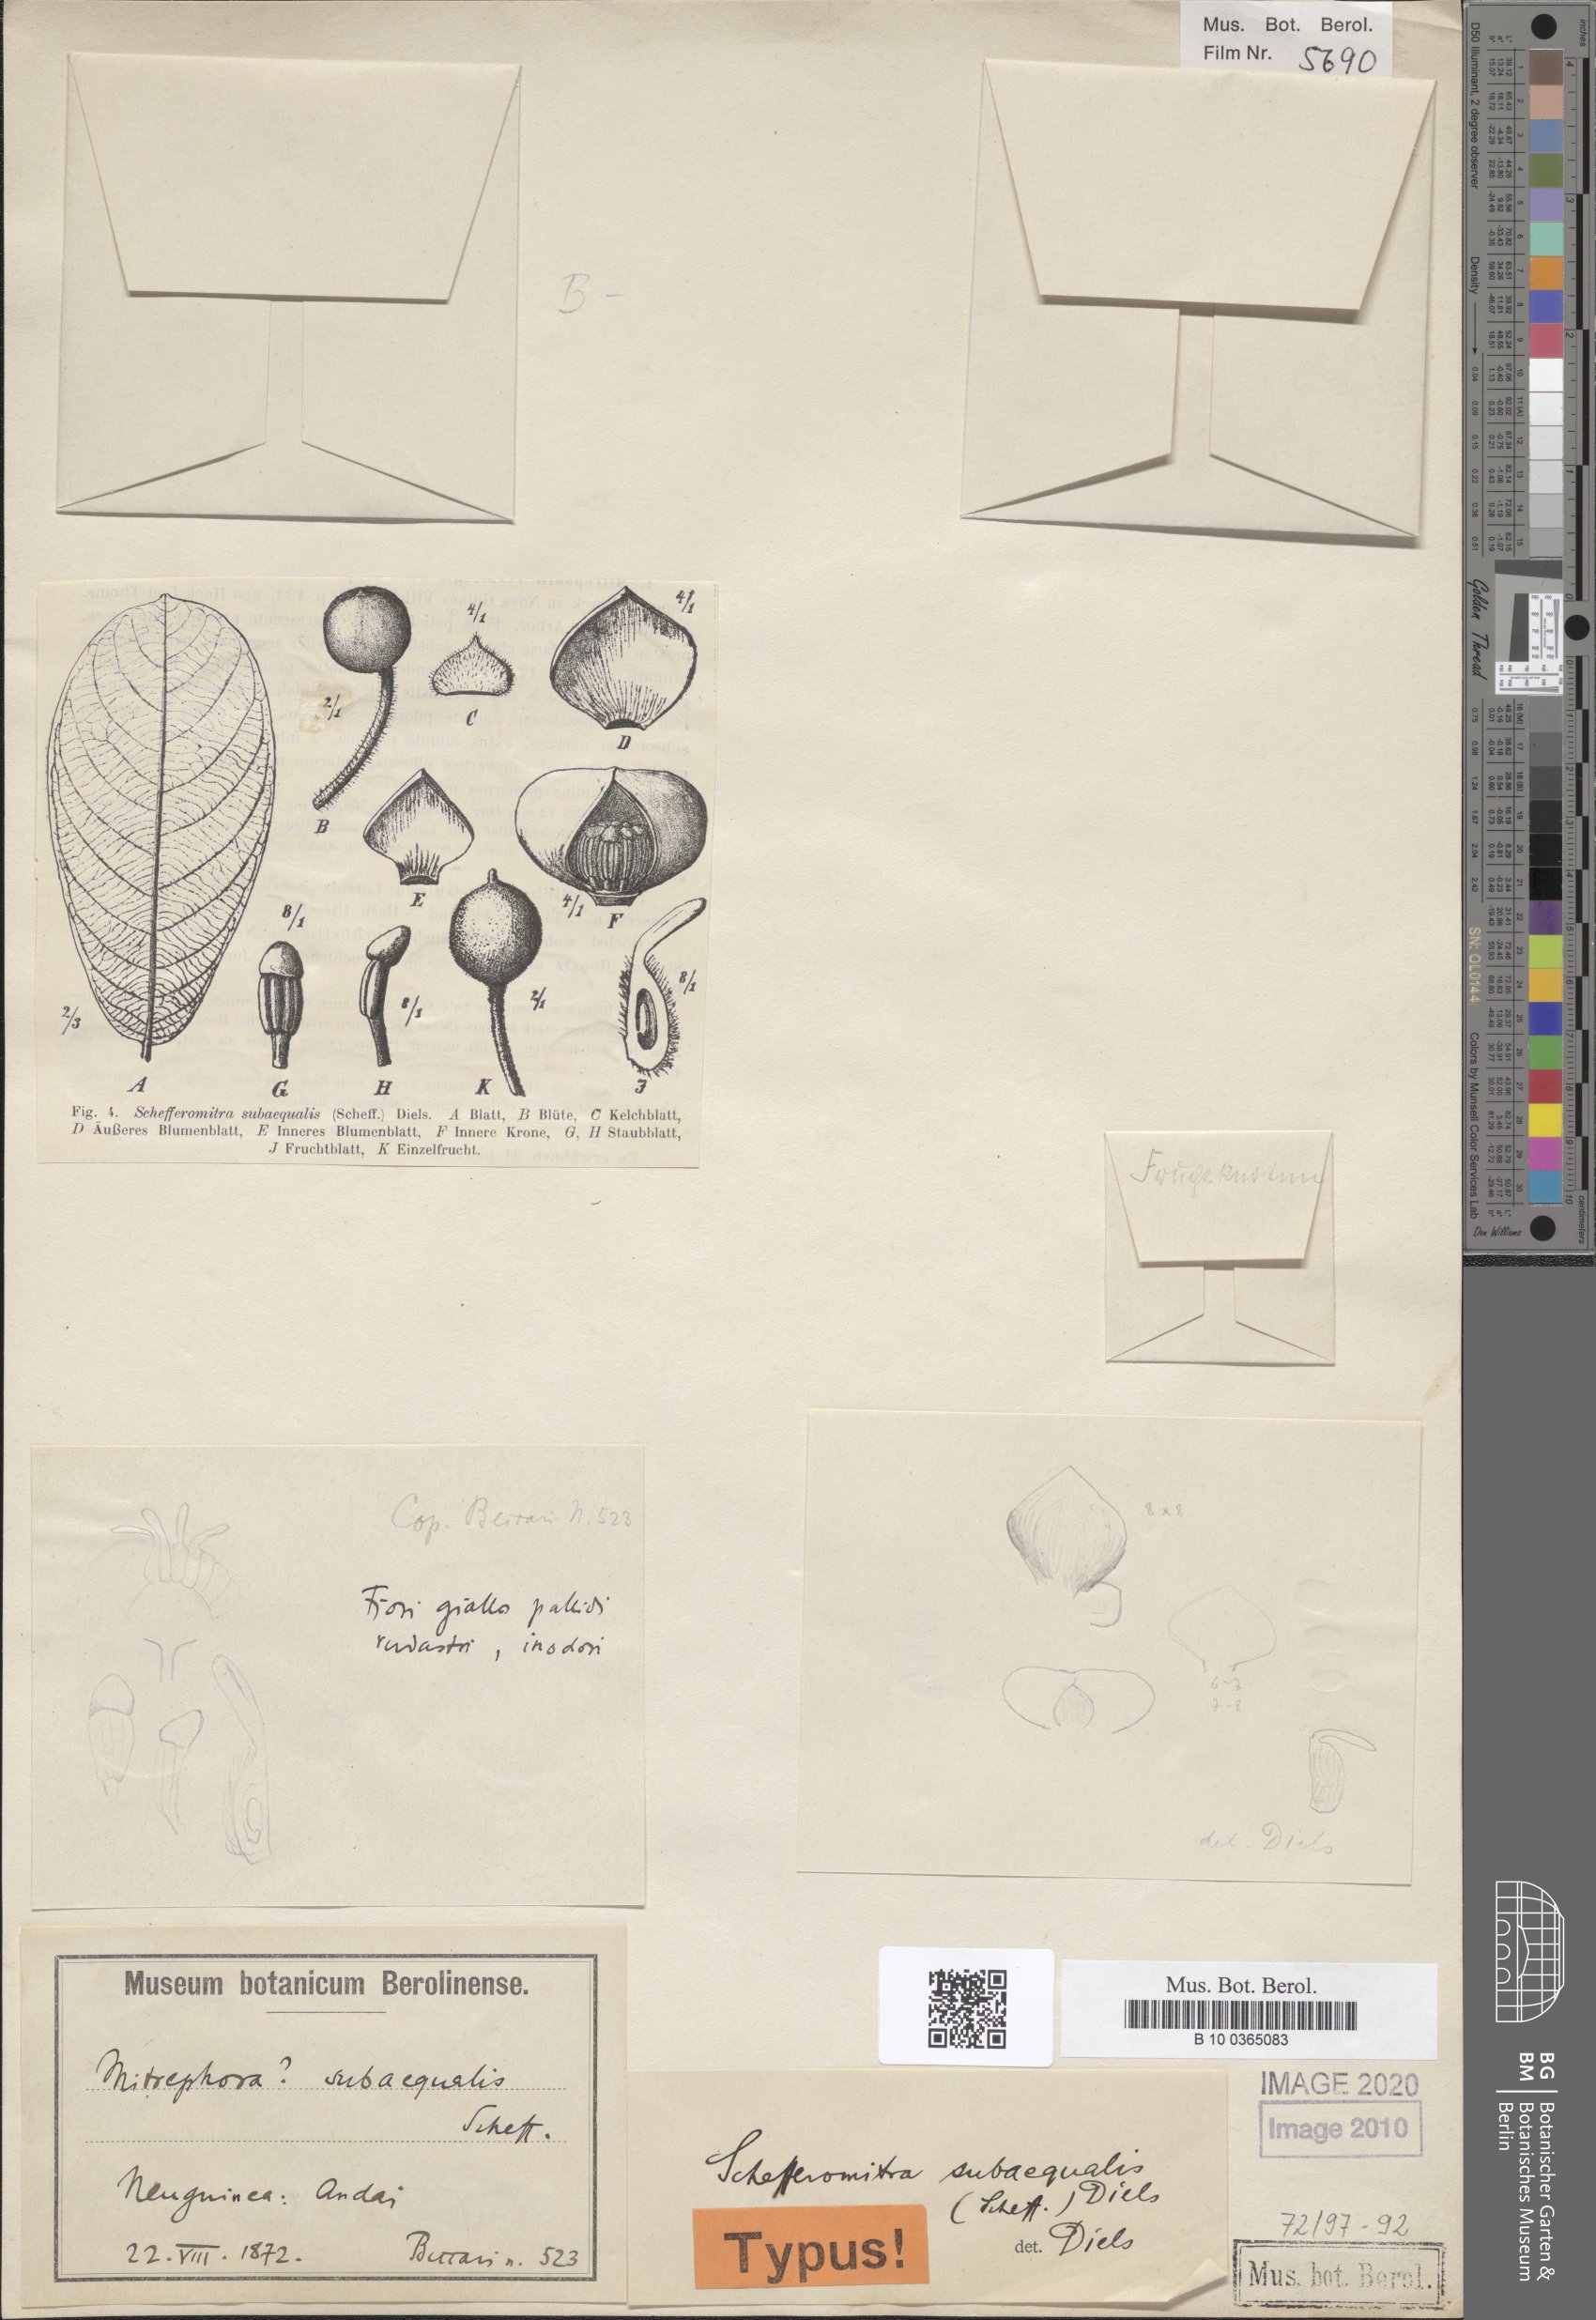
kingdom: Plantae
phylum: Tracheophyta
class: Magnoliopsida
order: Magnoliales
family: Annonaceae
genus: Schefferomitra
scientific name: Schefferomitra subaequalis
